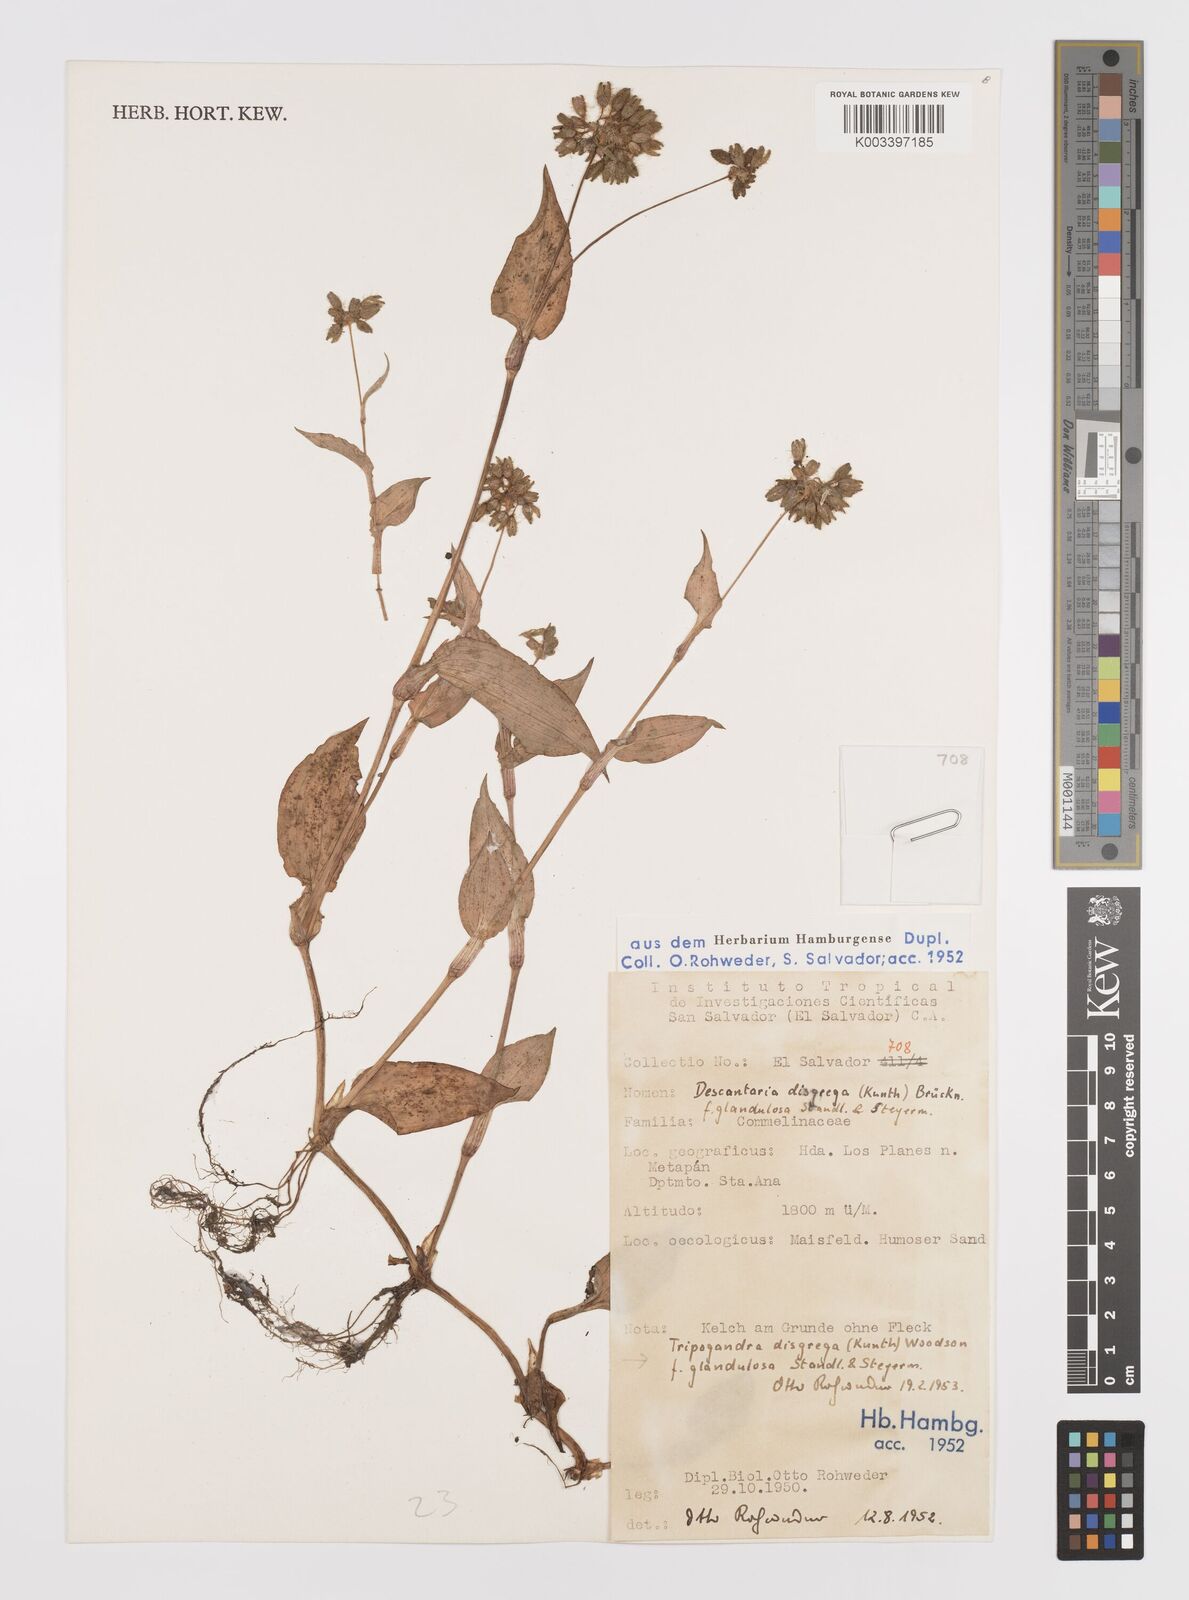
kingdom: Plantae
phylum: Tracheophyta
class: Liliopsida
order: Commelinales
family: Commelinaceae
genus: Callisia
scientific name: Callisia disgrega
